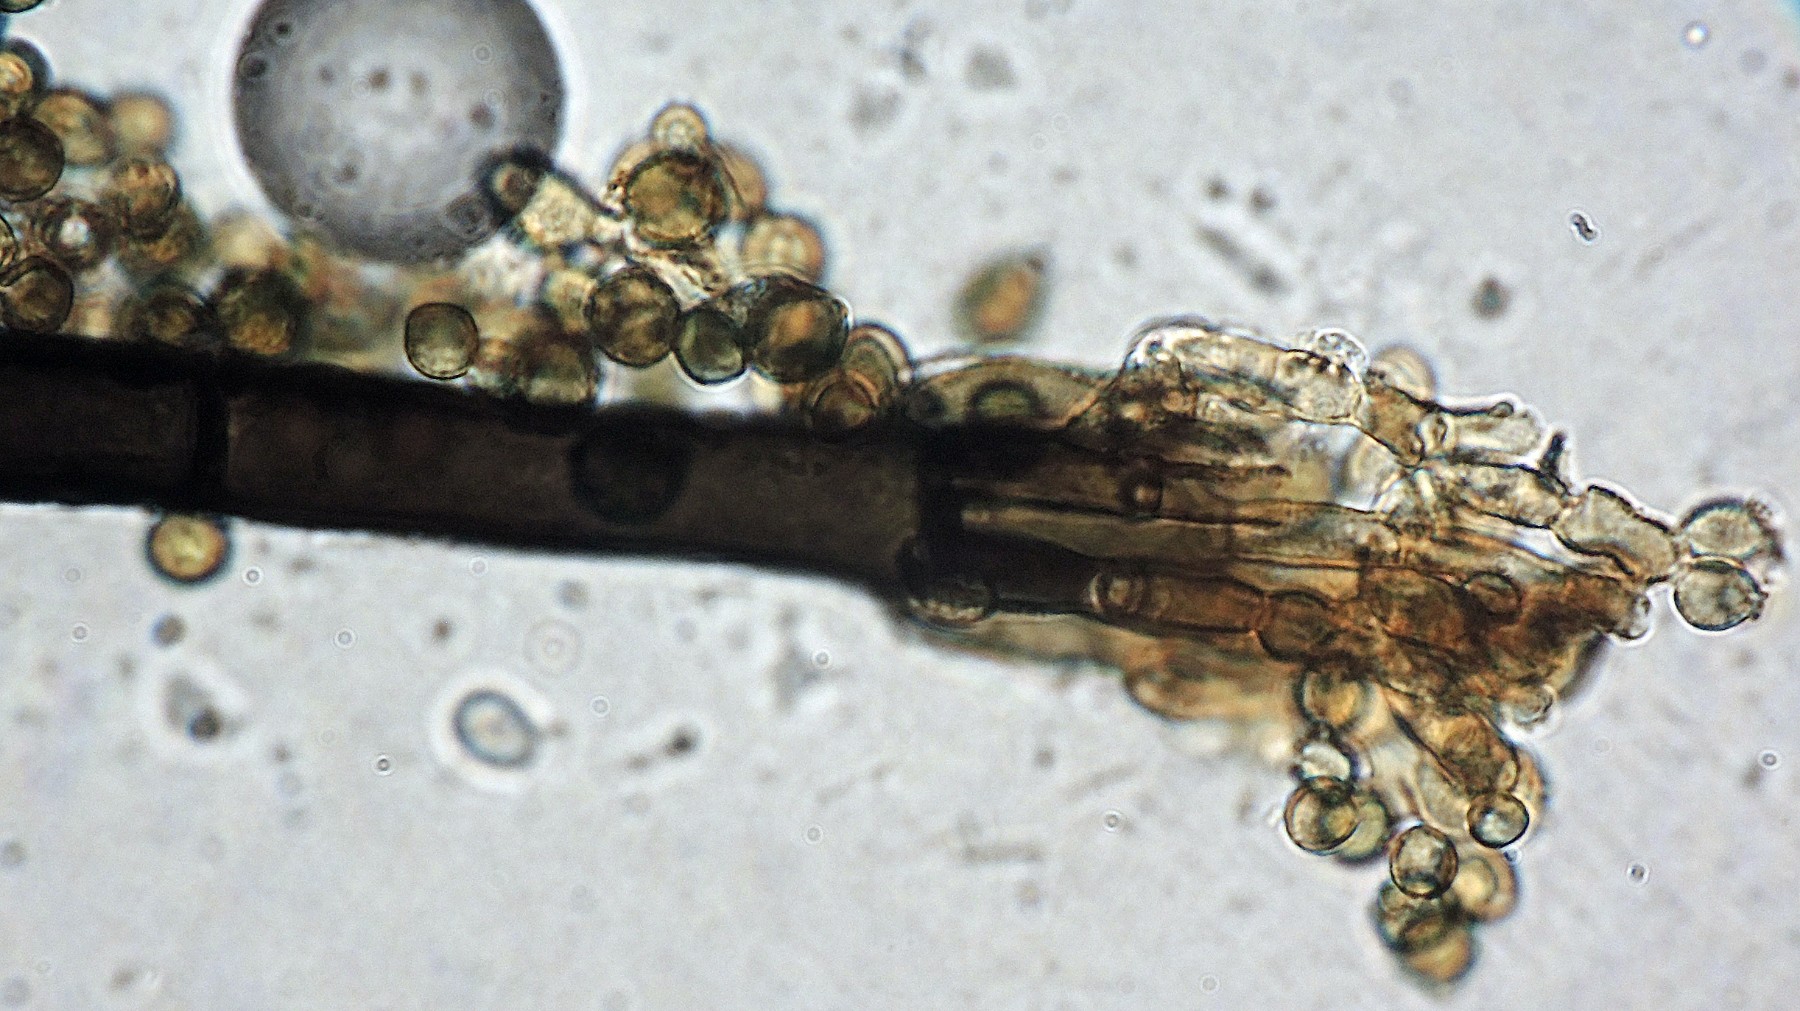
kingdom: Fungi
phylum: Ascomycota
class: Dothideomycetes
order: Pleosporales
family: Periconiaceae
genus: Periconia
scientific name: Periconia digitata
